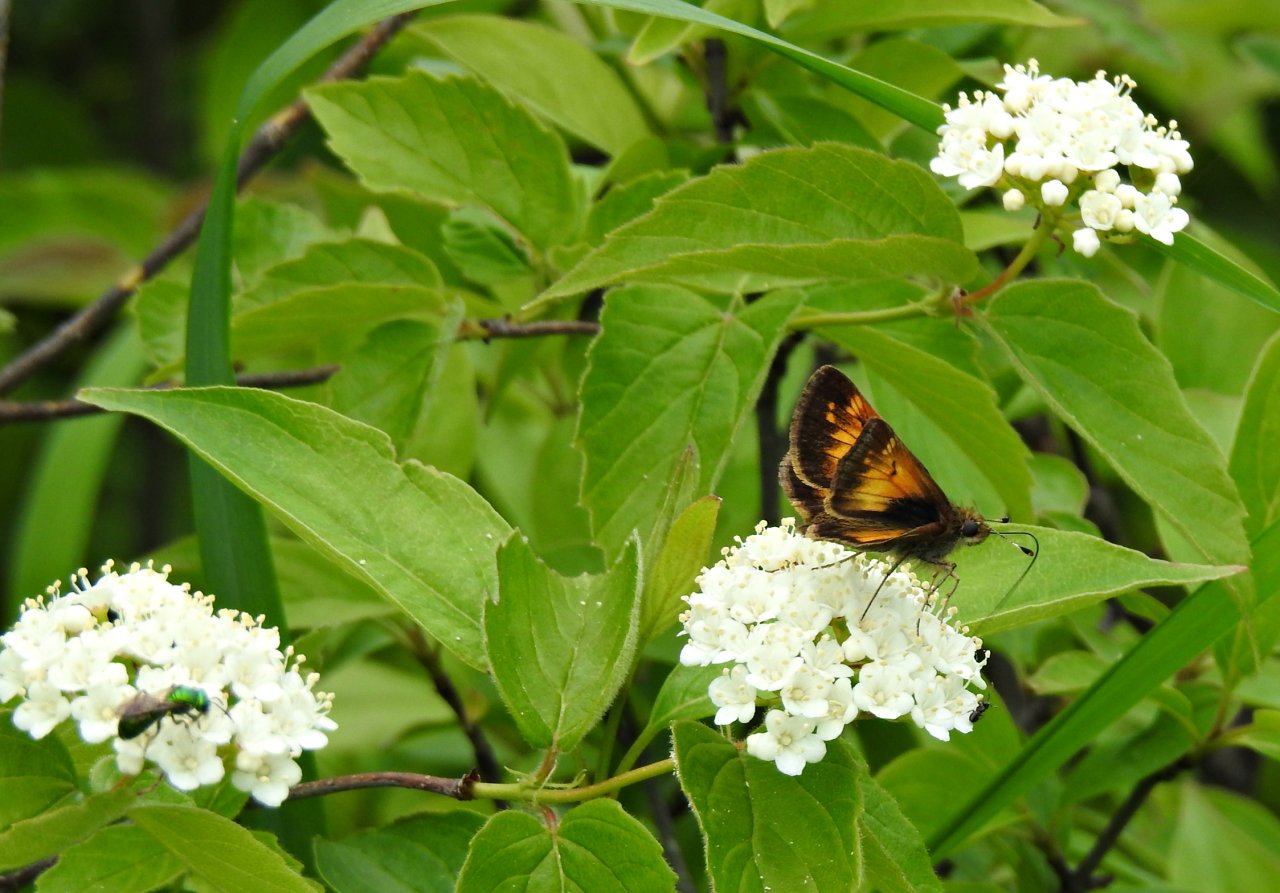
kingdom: Animalia
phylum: Arthropoda
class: Insecta
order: Lepidoptera
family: Hesperiidae
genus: Lon
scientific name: Lon hobomok
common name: Hobomok Skipper
